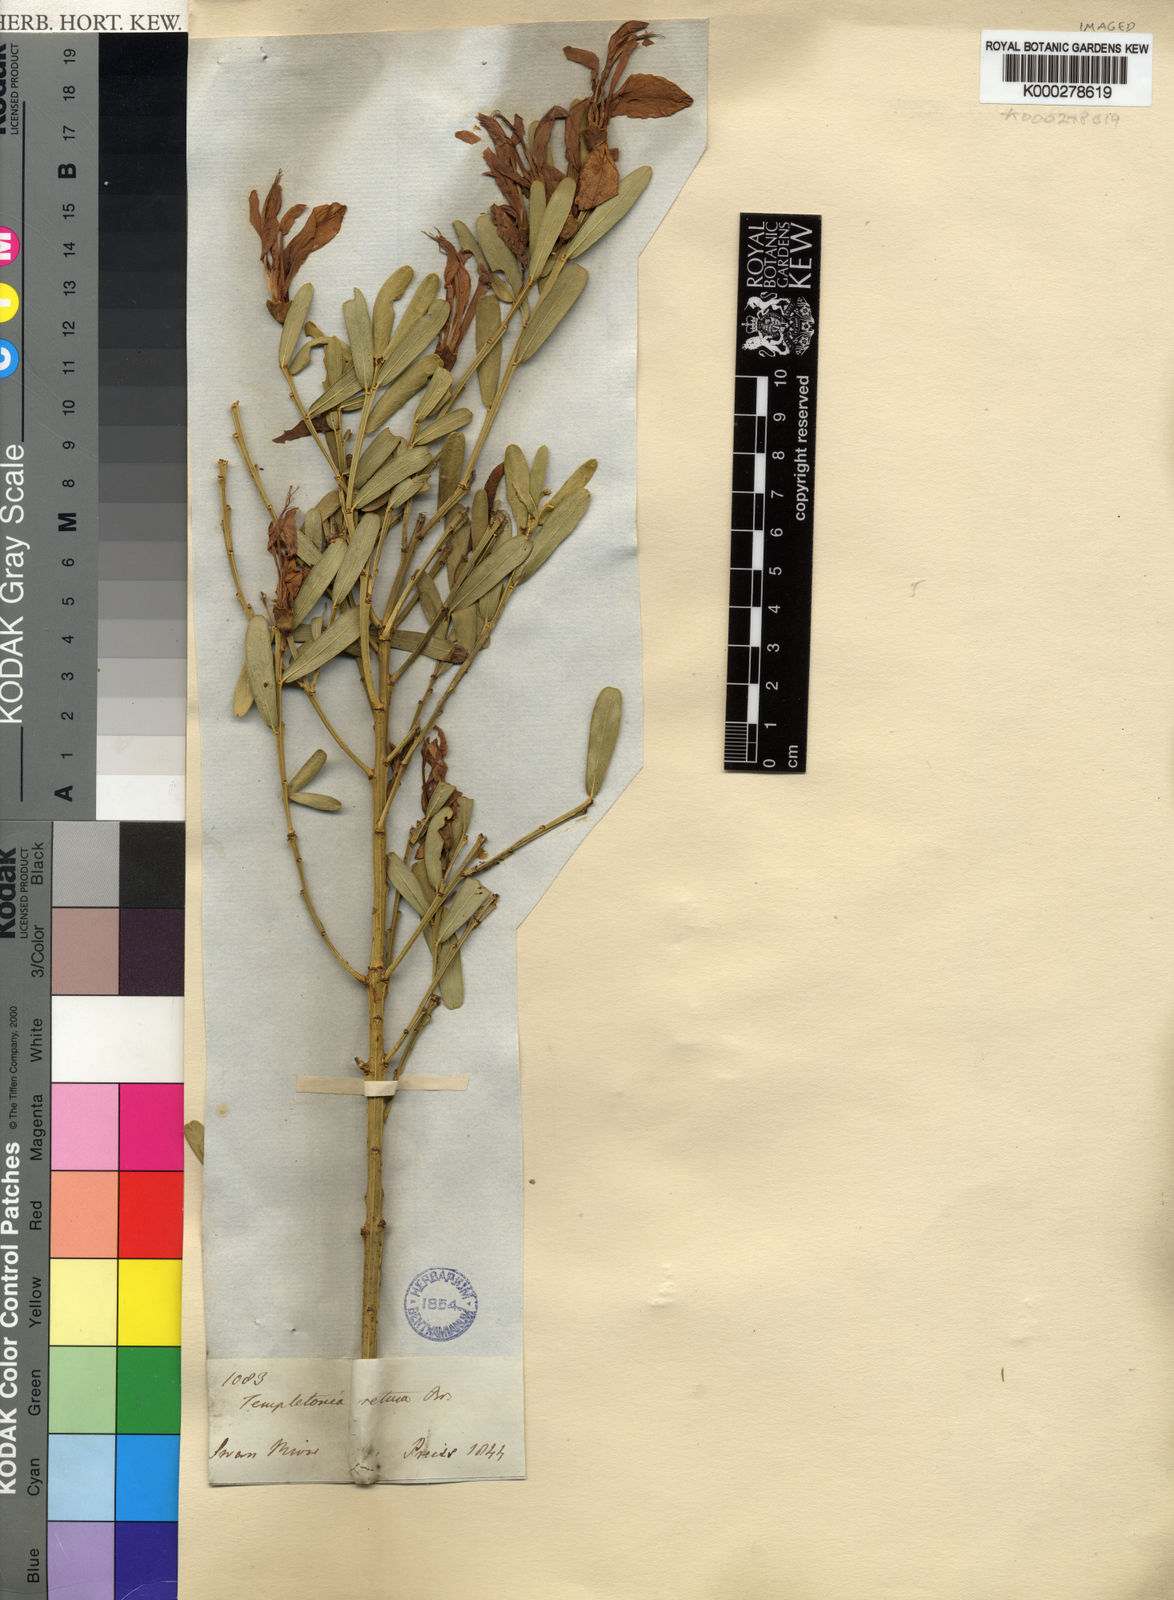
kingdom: Plantae
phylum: Tracheophyta
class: Magnoliopsida
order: Fabales
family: Fabaceae
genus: Templetonia
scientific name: Templetonia retusa
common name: Cockies'-tongue
